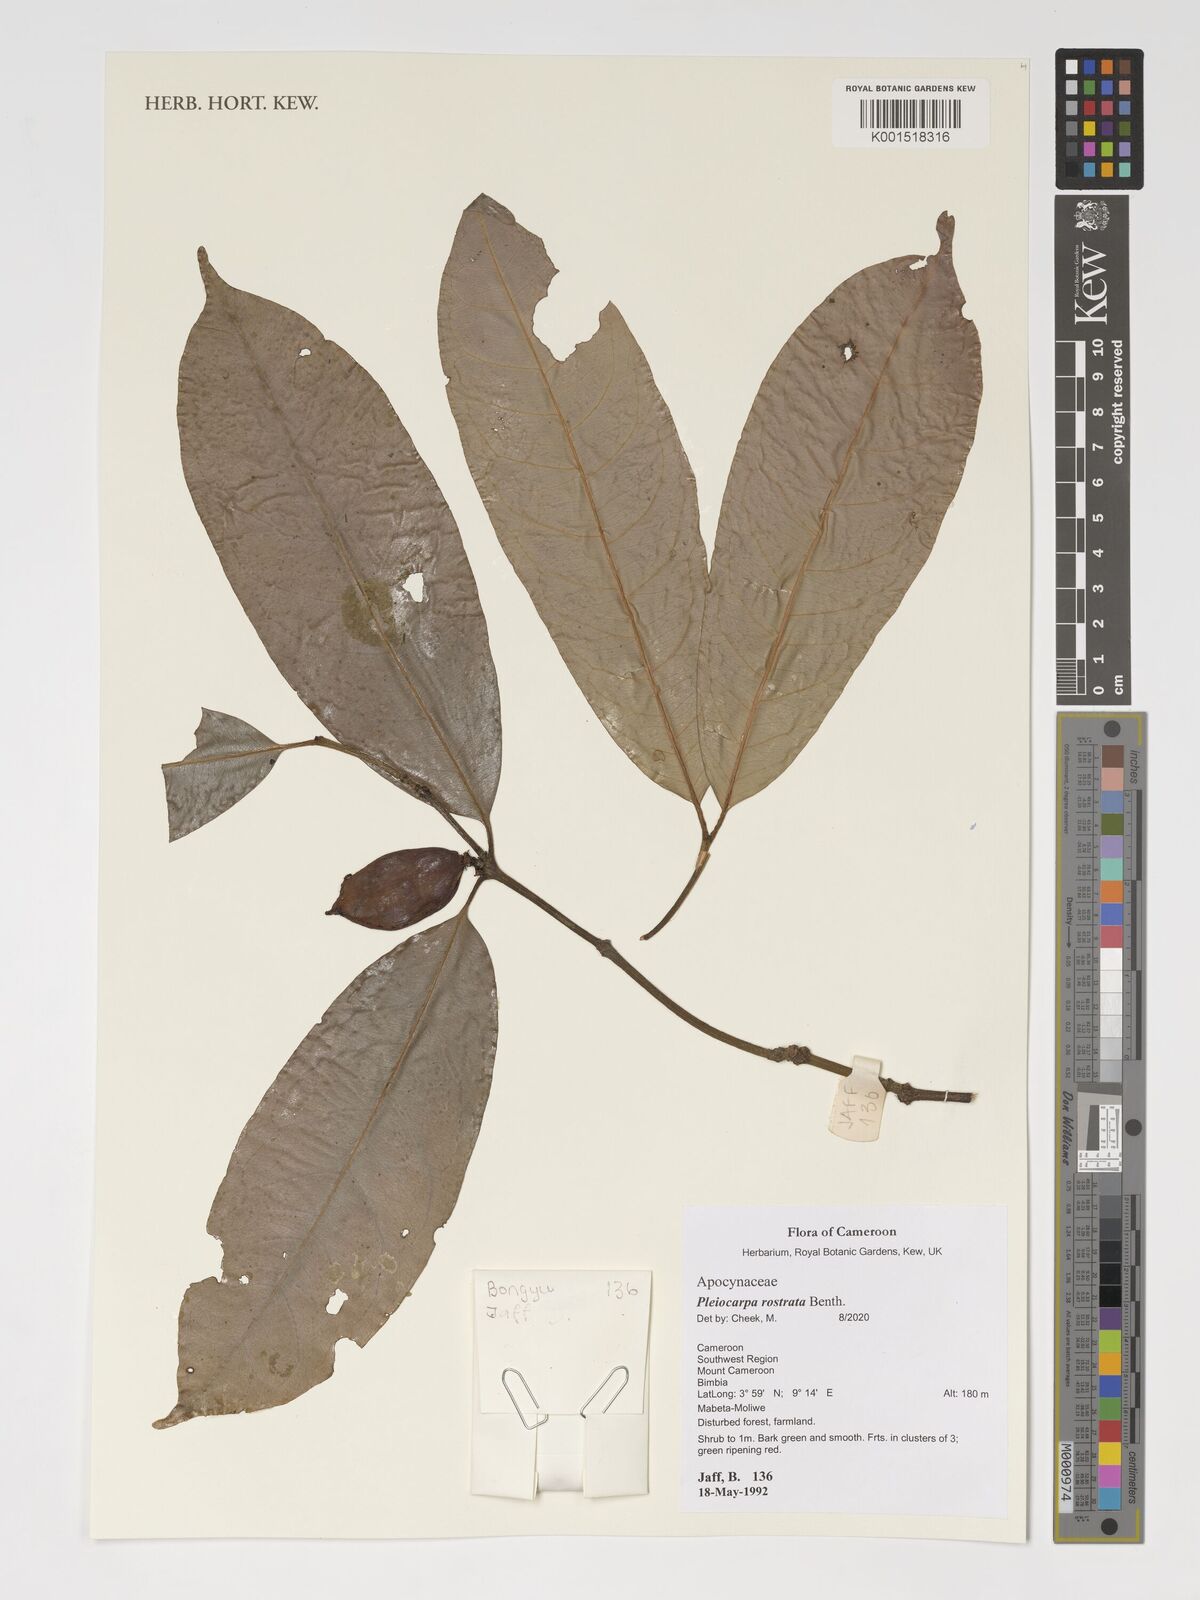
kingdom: Plantae
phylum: Tracheophyta
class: Magnoliopsida
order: Gentianales
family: Apocynaceae
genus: Pleiocarpa
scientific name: Pleiocarpa rostrata
